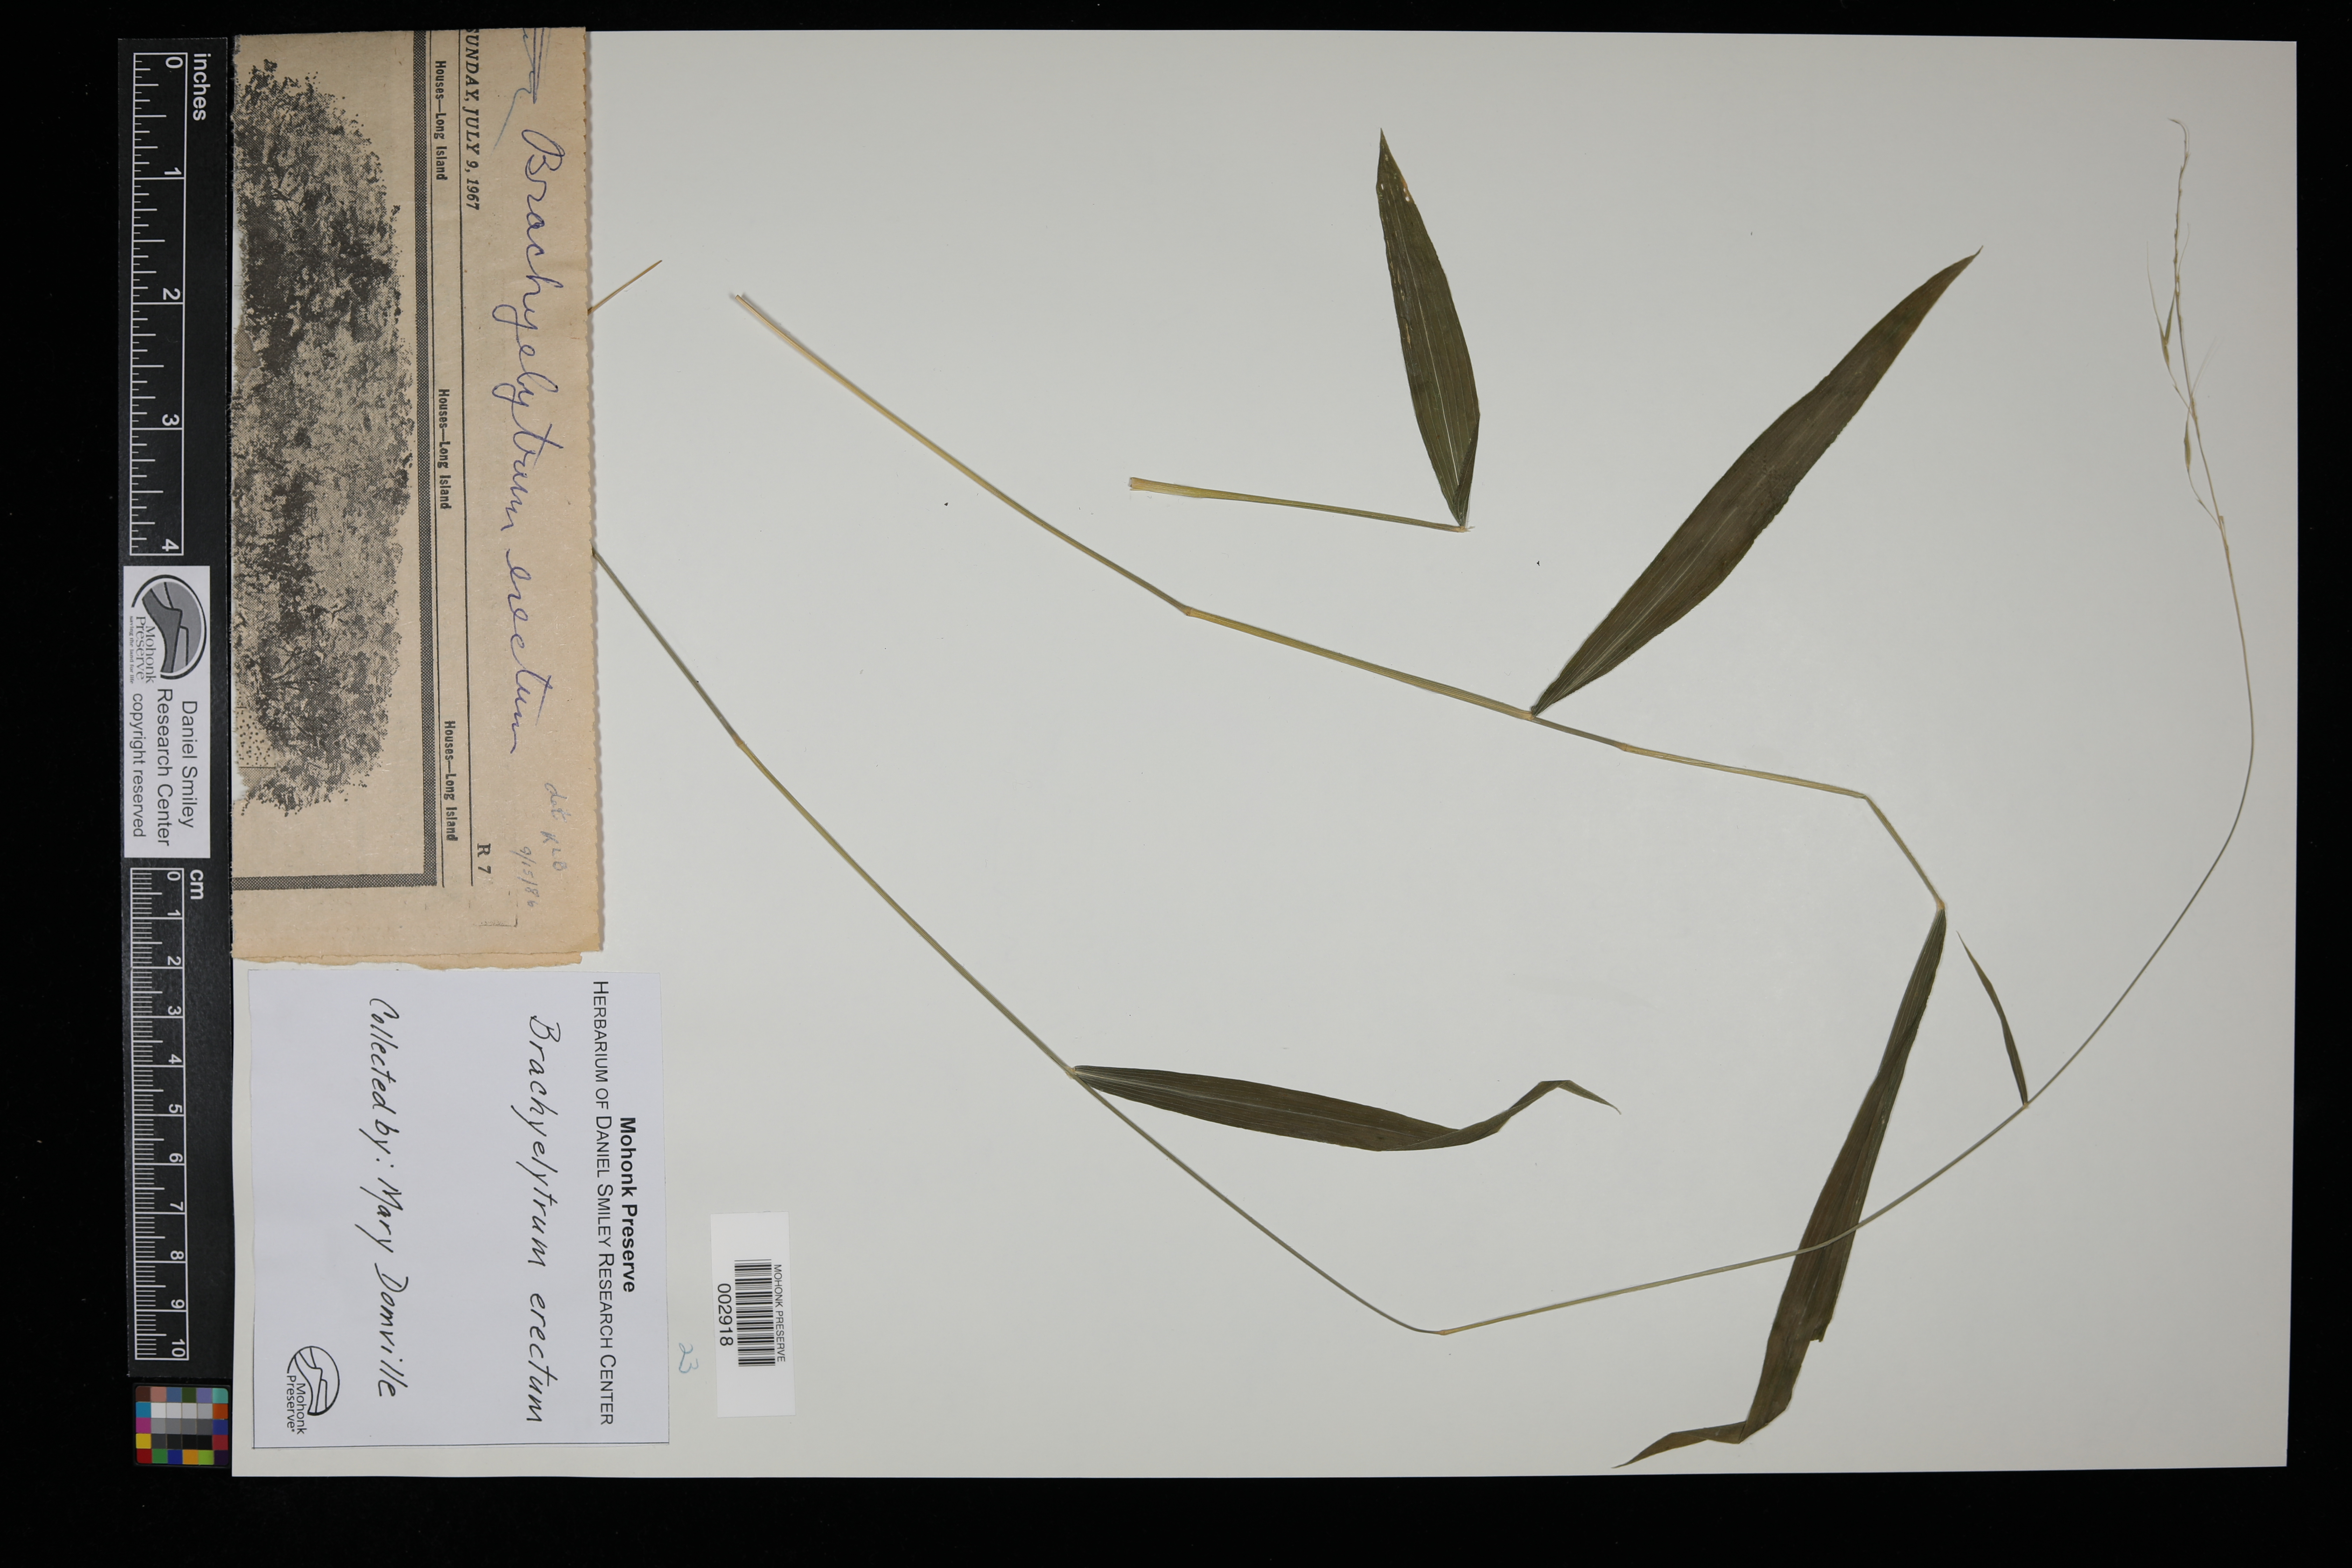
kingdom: Plantae
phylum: Tracheophyta
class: Liliopsida
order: Poales
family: Poaceae
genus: Brachyelytrum
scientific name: Brachyelytrum erectum
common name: Bearded shorthusk
